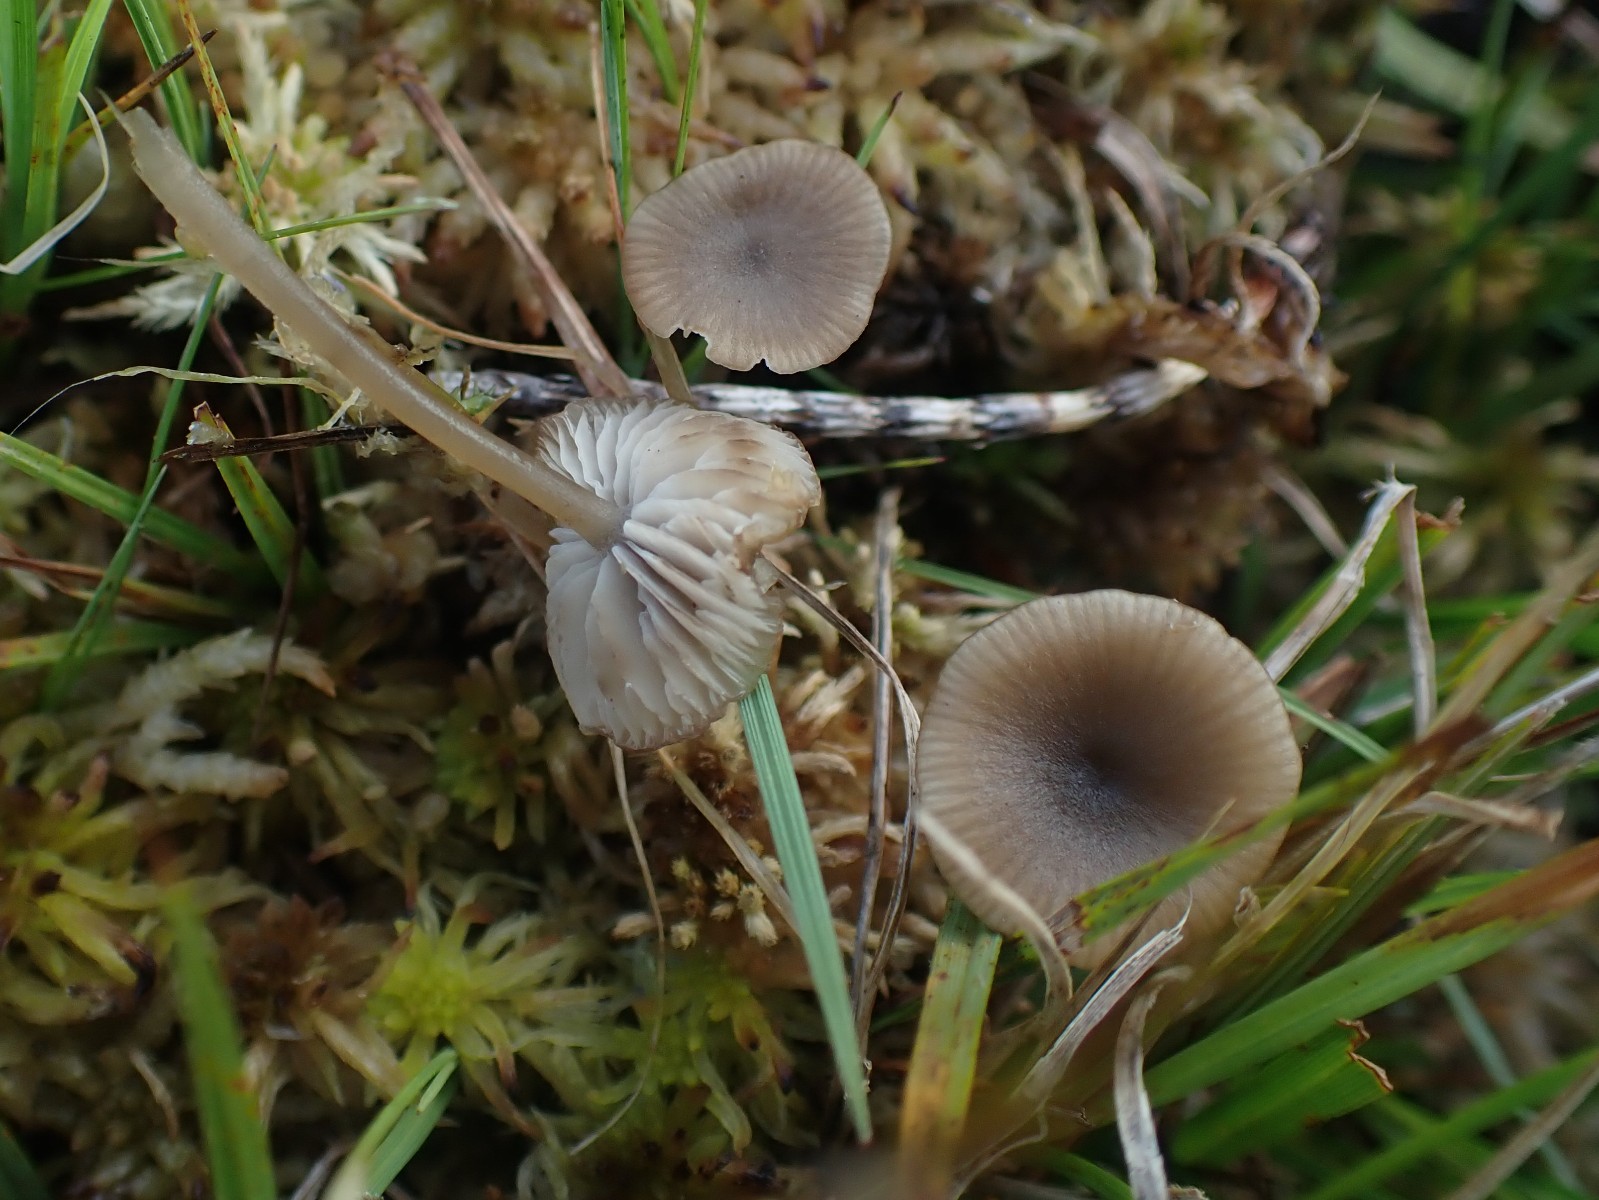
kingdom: Fungi
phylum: Basidiomycota
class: Agaricomycetes
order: Agaricales
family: Lyophyllaceae
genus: Sphagnurus
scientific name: Sphagnurus paluster
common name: tørvemos-gråblad
